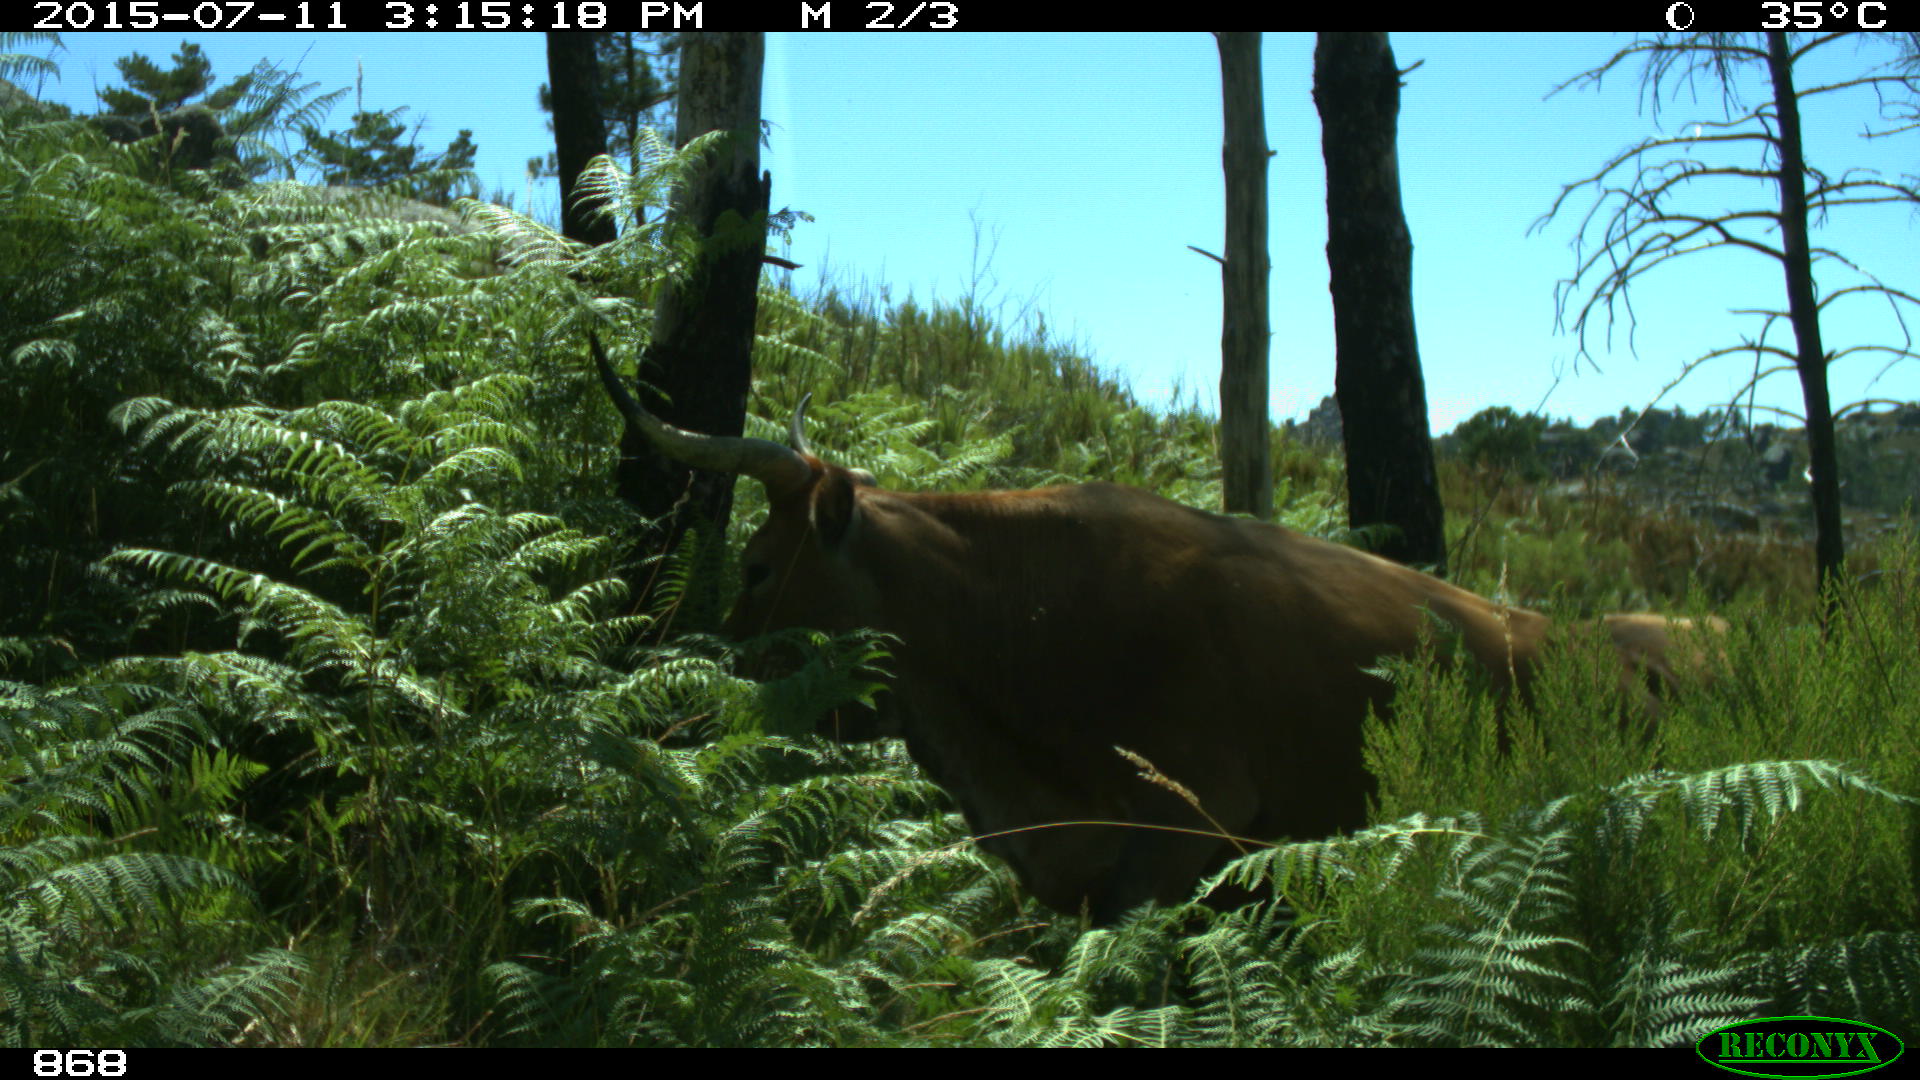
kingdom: Animalia
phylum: Chordata
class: Mammalia
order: Artiodactyla
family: Bovidae
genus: Bos
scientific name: Bos taurus
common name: Domesticated cattle
